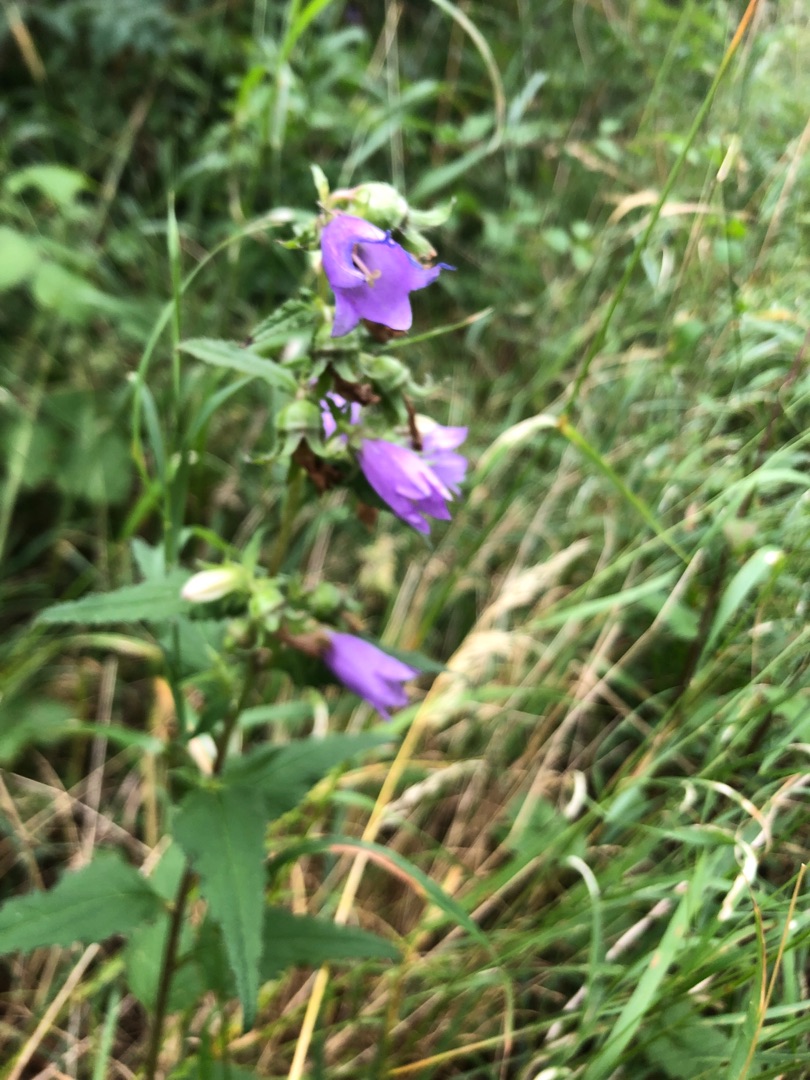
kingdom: Plantae
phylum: Tracheophyta
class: Magnoliopsida
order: Asterales
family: Campanulaceae
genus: Campanula
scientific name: Campanula trachelium
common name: Nælde-klokke
